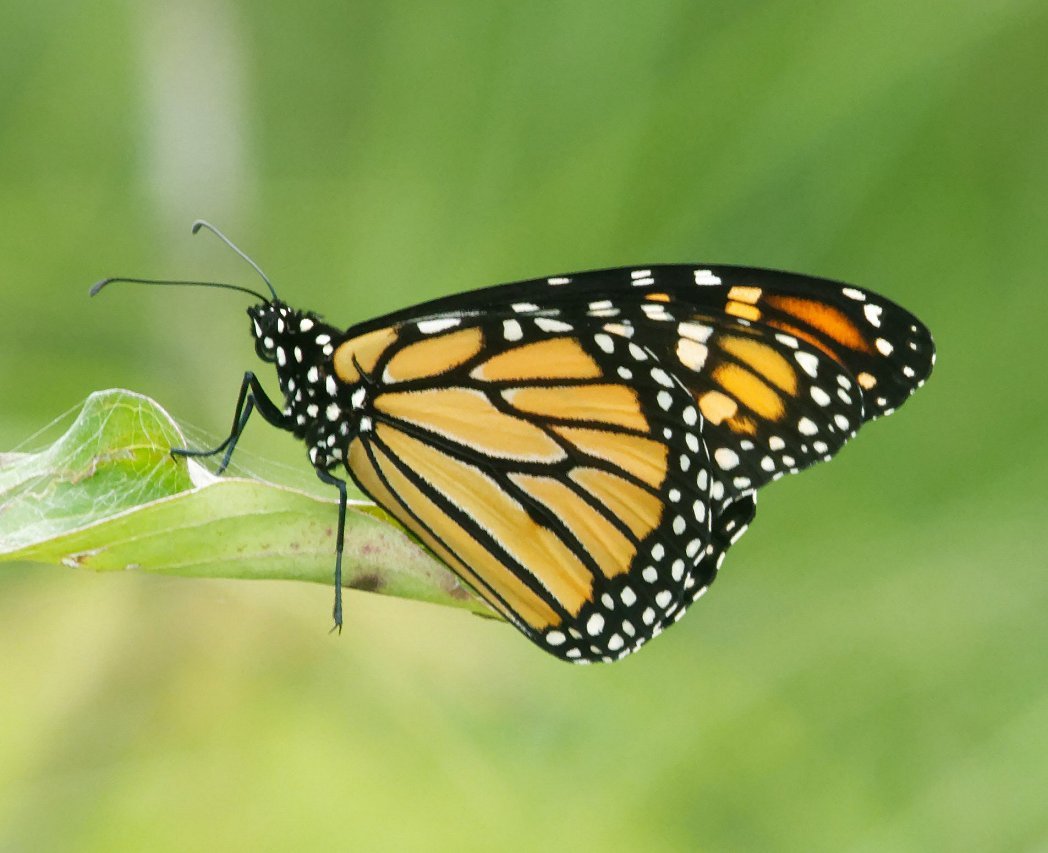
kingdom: Animalia
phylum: Arthropoda
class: Insecta
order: Lepidoptera
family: Nymphalidae
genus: Danaus
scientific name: Danaus plexippus
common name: Monarch
